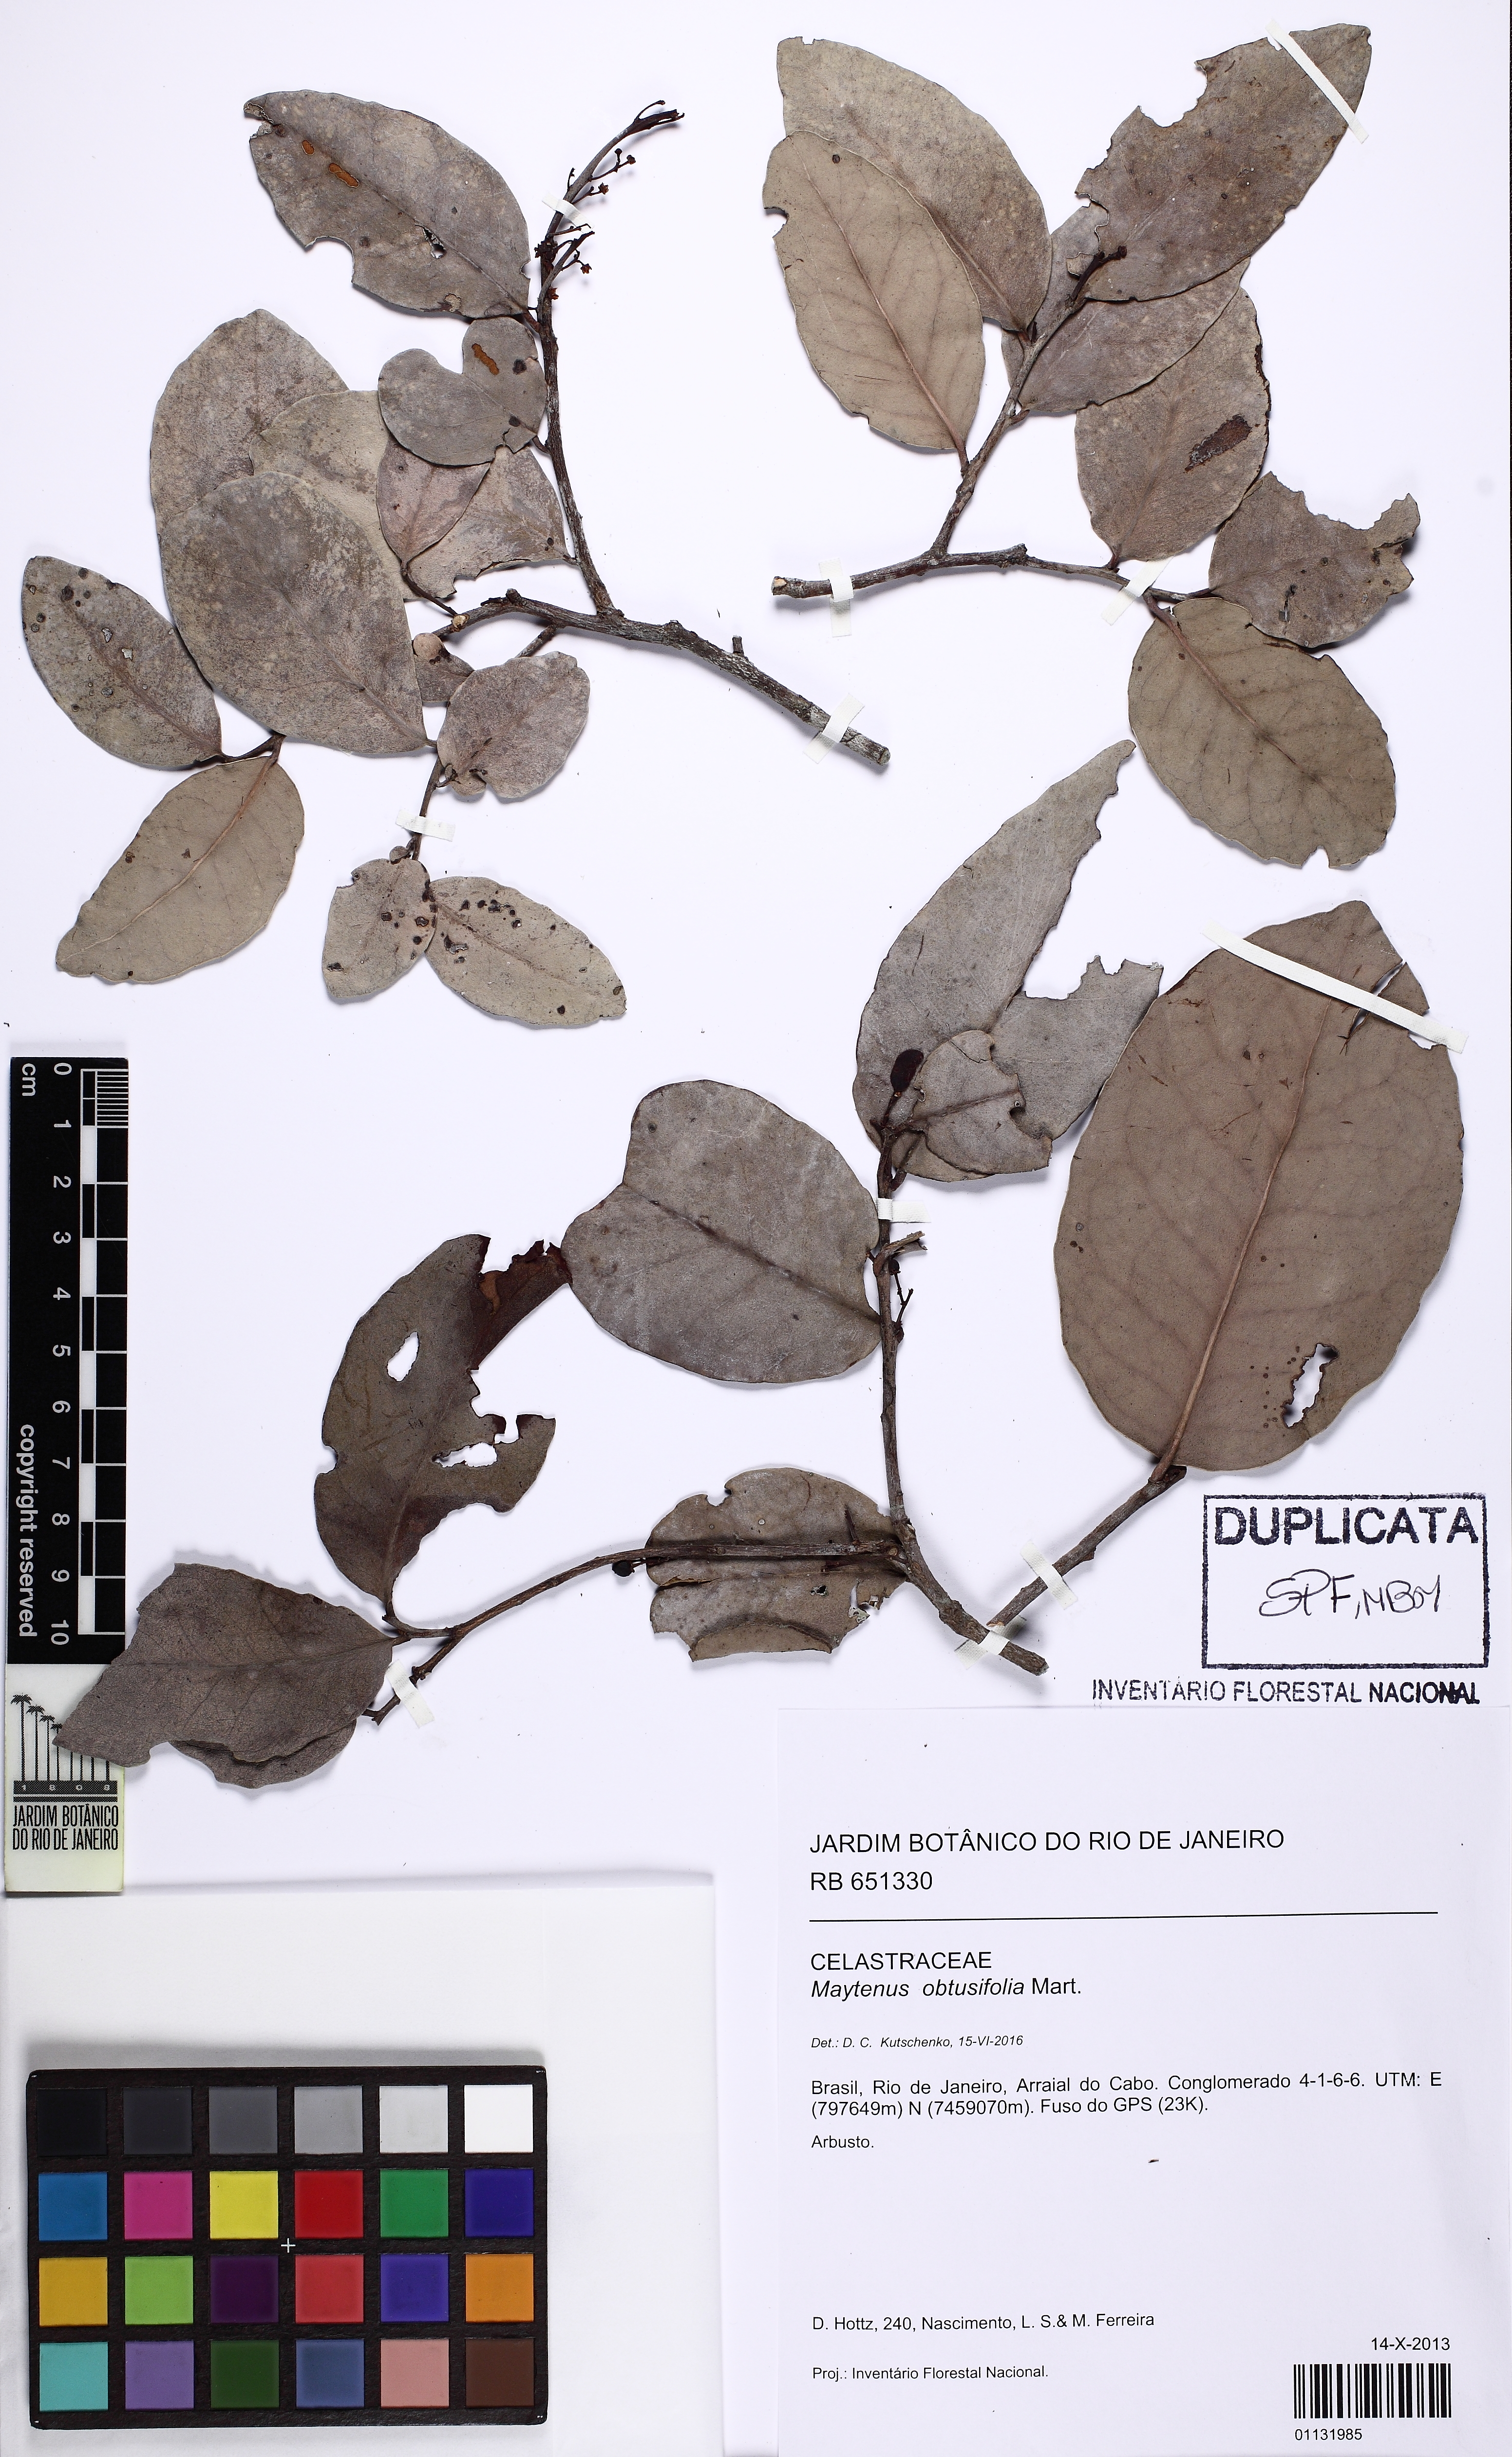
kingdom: Plantae
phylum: Tracheophyta
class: Magnoliopsida
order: Celastrales
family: Celastraceae
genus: Monteverdia
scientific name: Monteverdia obtusifolia
